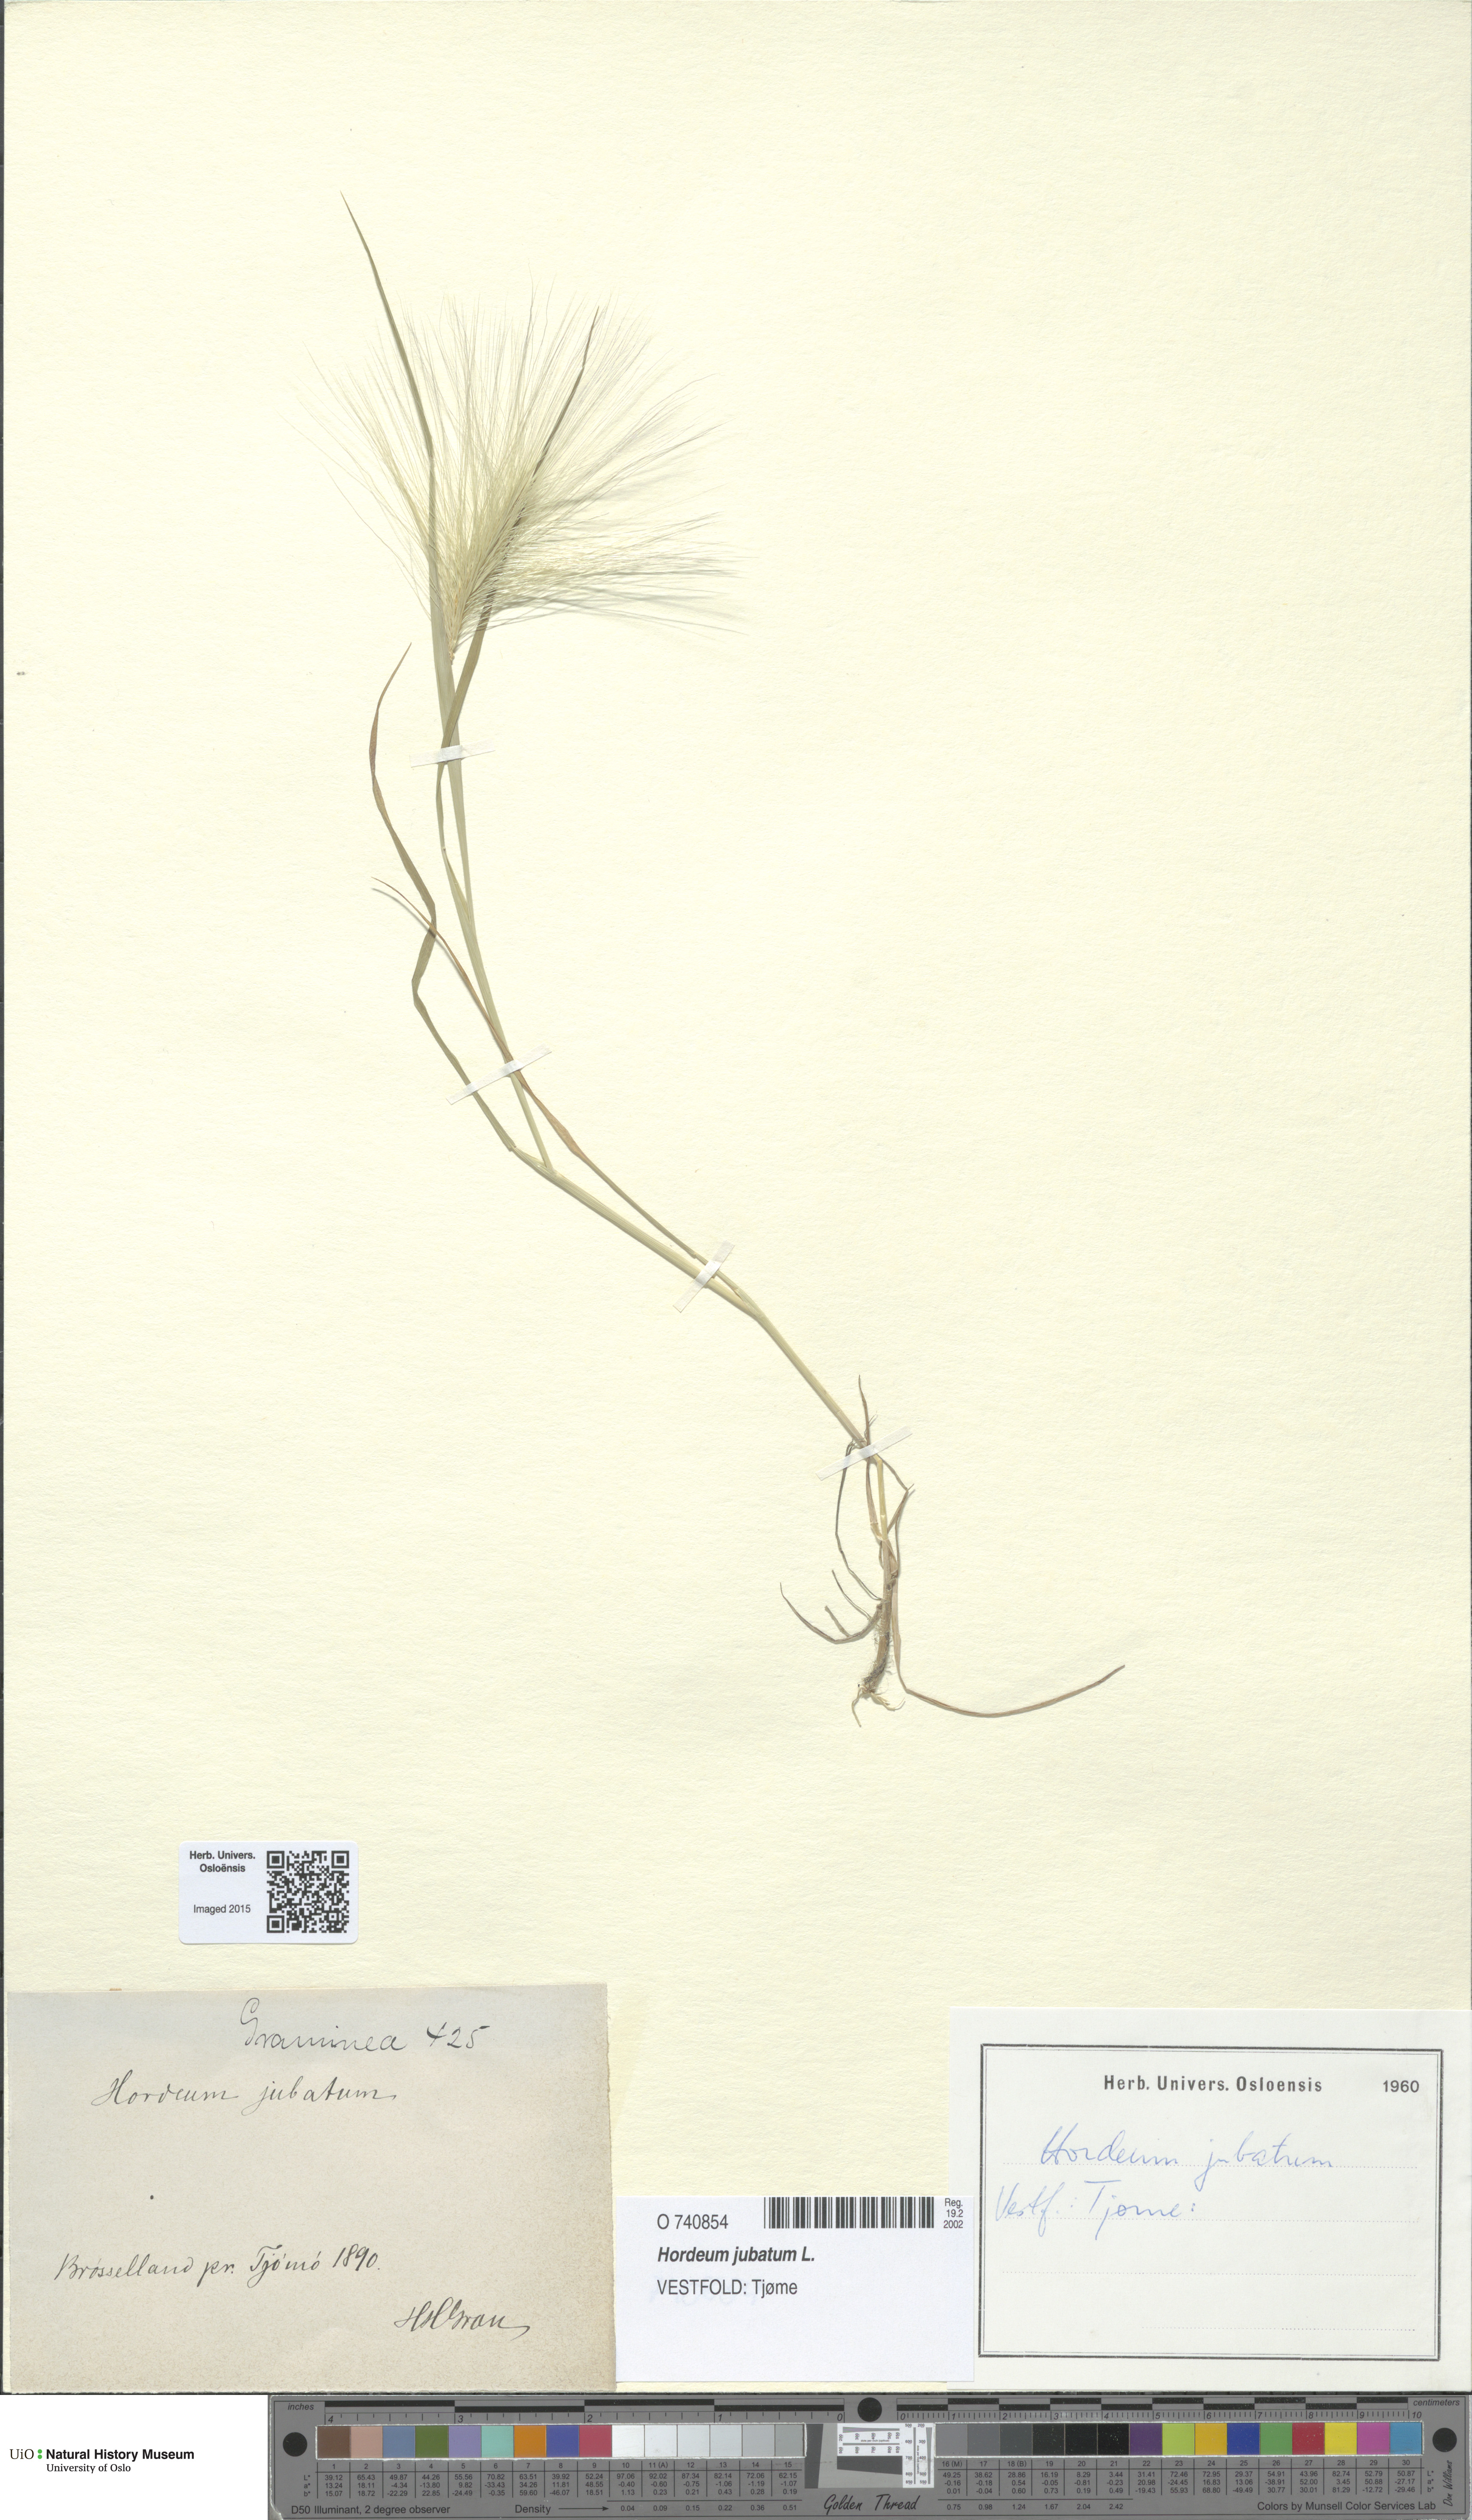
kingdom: Plantae
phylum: Tracheophyta
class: Liliopsida
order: Poales
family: Poaceae
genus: Hordeum
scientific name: Hordeum jubatum
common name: Foxtail barley
